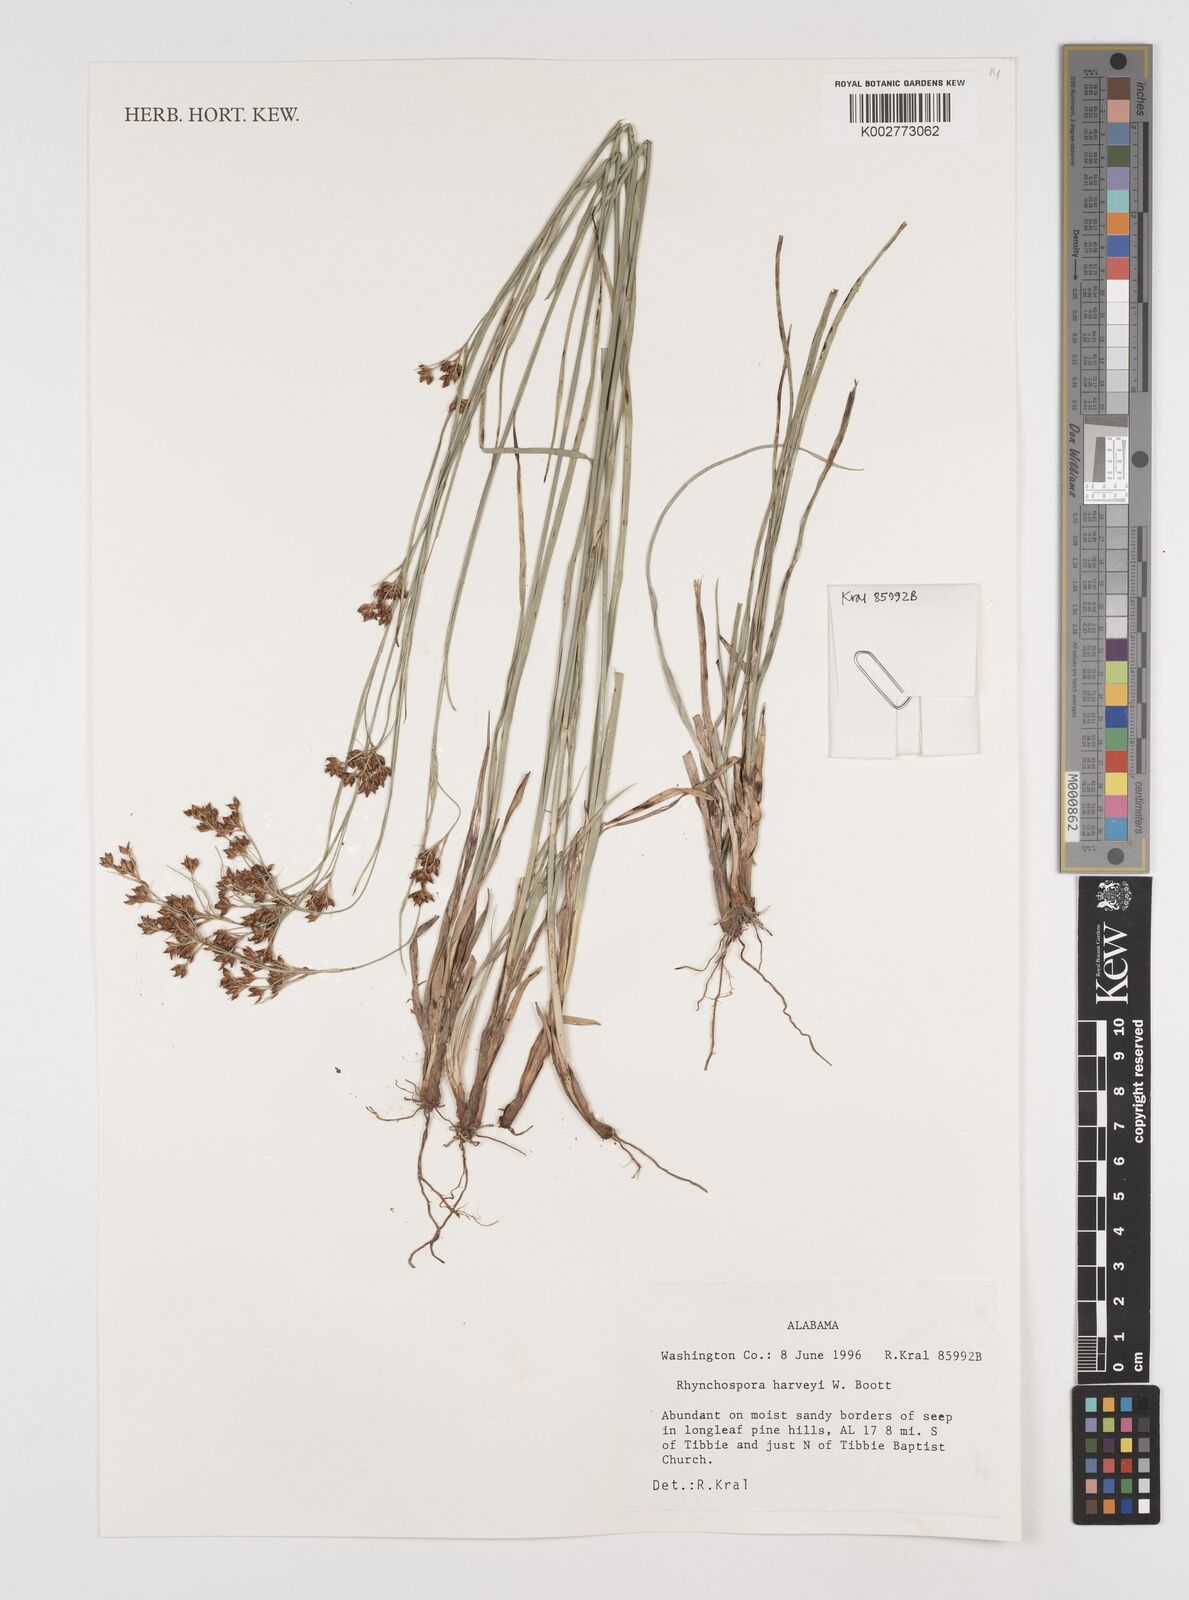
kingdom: Plantae
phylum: Tracheophyta
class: Liliopsida
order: Poales
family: Cyperaceae
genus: Rhynchospora
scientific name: Rhynchospora harveyi
